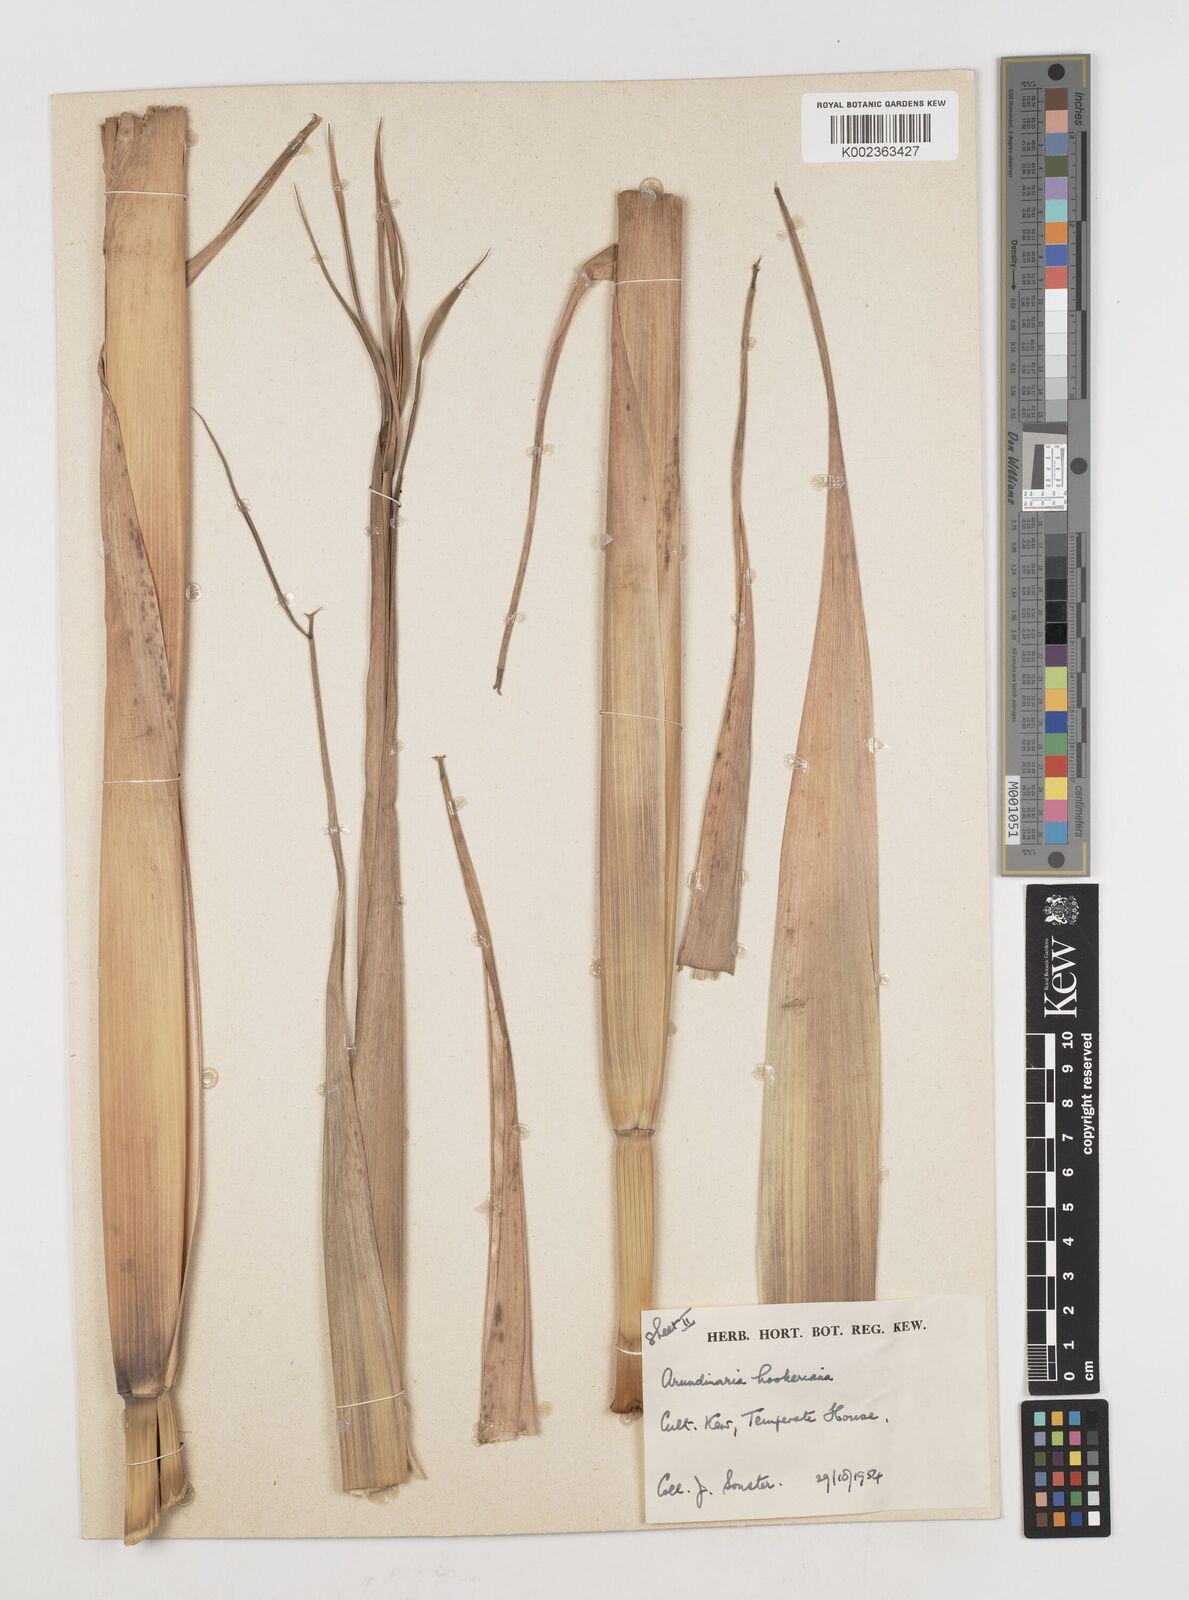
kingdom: Plantae
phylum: Tracheophyta
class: Liliopsida
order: Poales
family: Poaceae
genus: Himalayacalamus
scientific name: Himalayacalamus hookerianus
